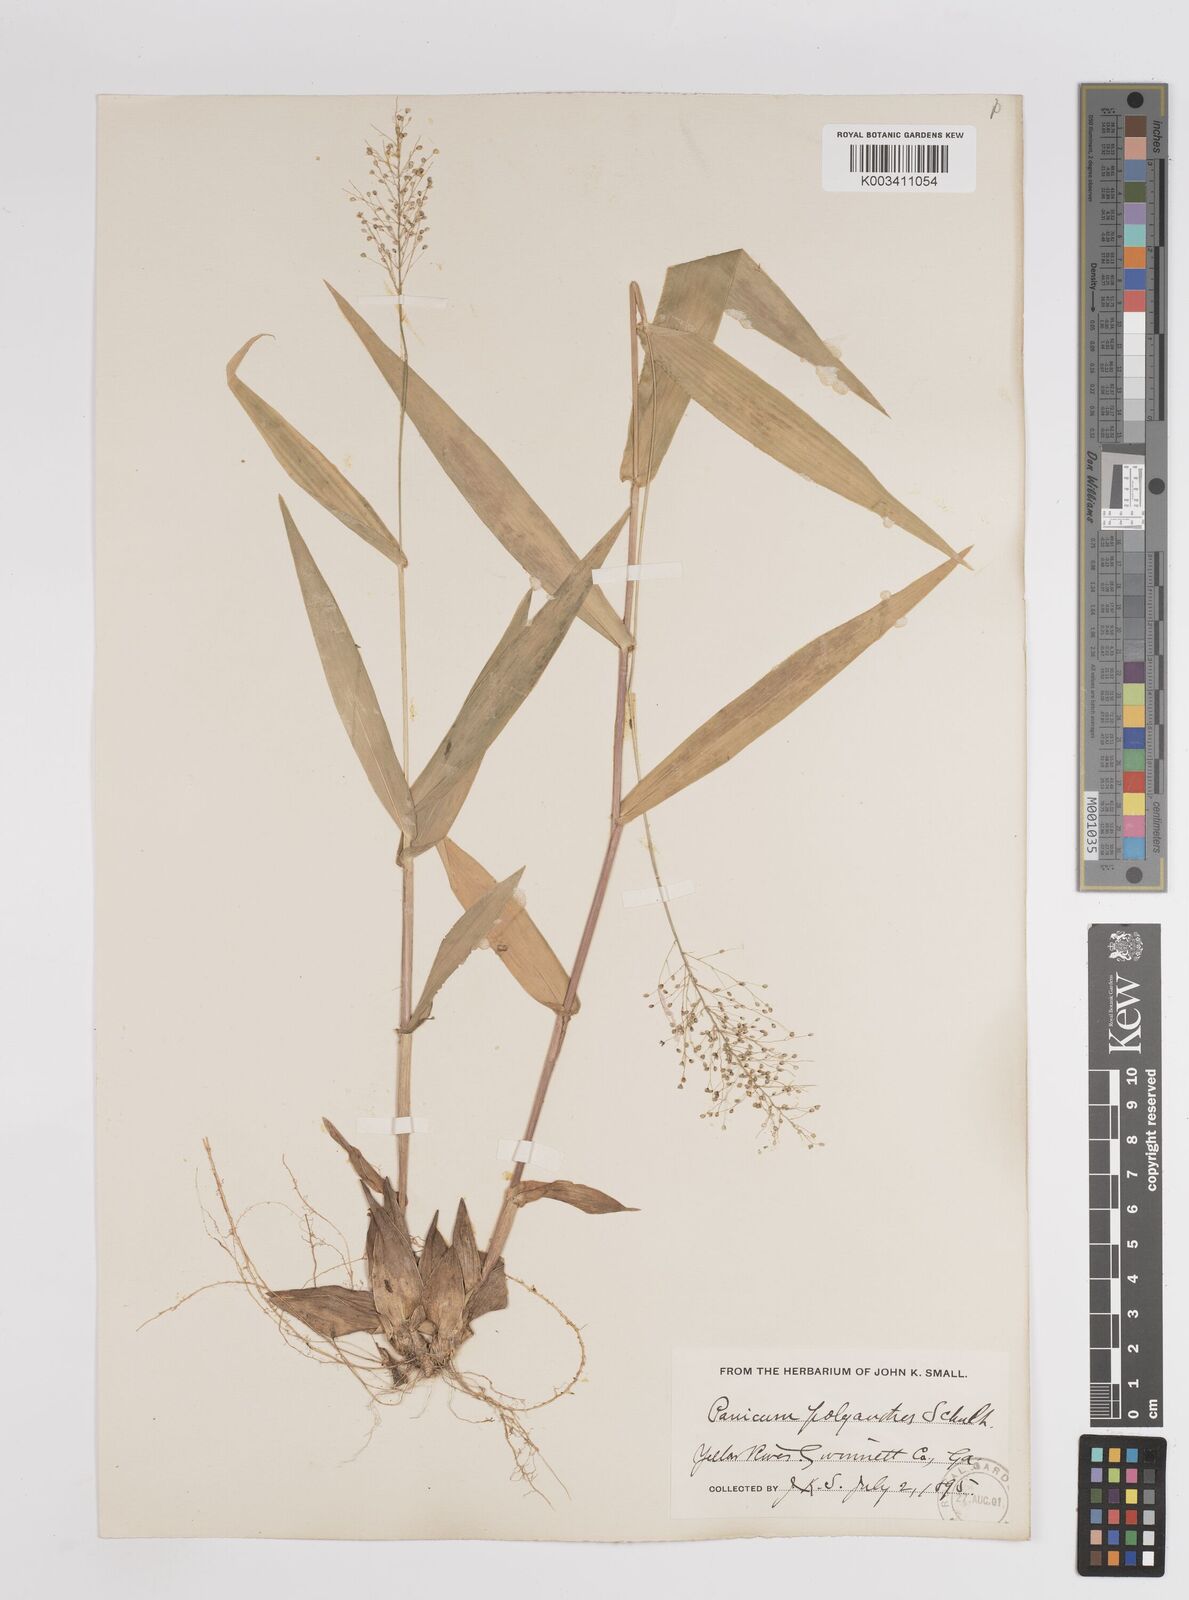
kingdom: Plantae
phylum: Tracheophyta
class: Liliopsida
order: Poales
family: Poaceae
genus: Dichanthelium
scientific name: Dichanthelium polyanthes
